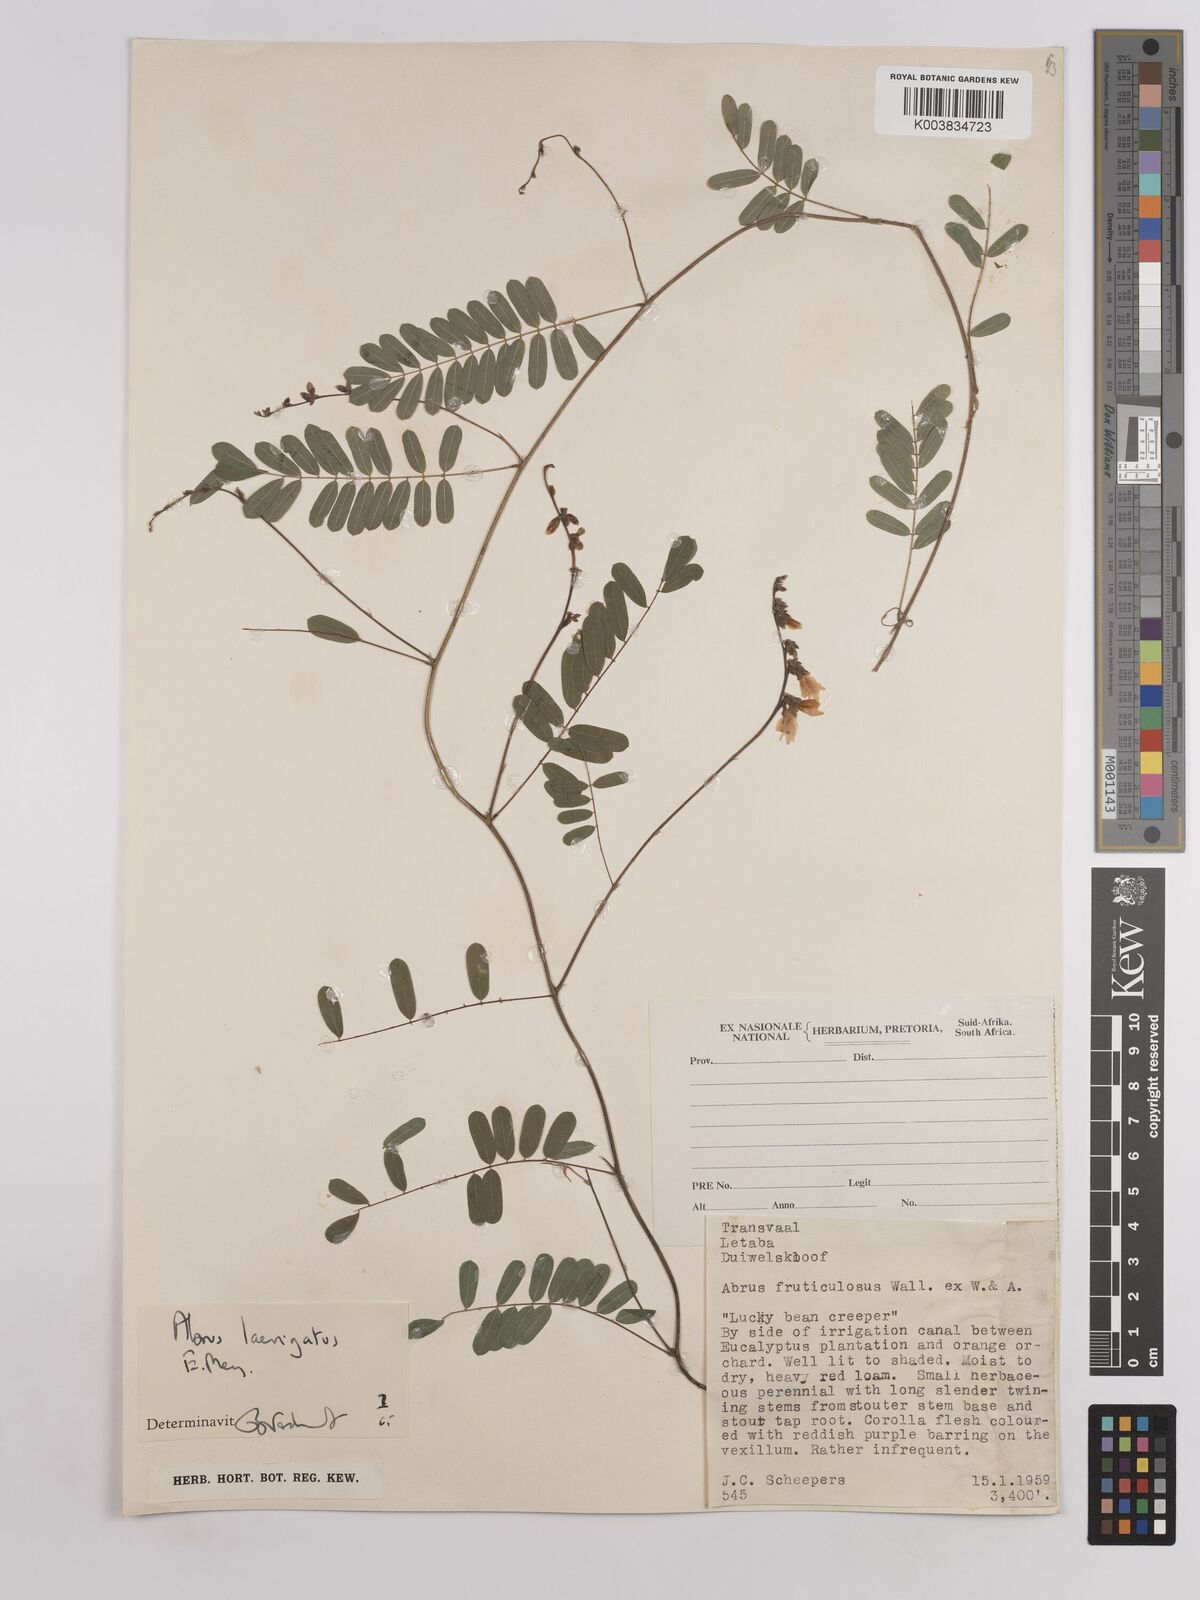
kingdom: Plantae
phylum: Tracheophyta
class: Magnoliopsida
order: Fabales
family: Fabaceae
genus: Abrus
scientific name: Abrus laevigatus
